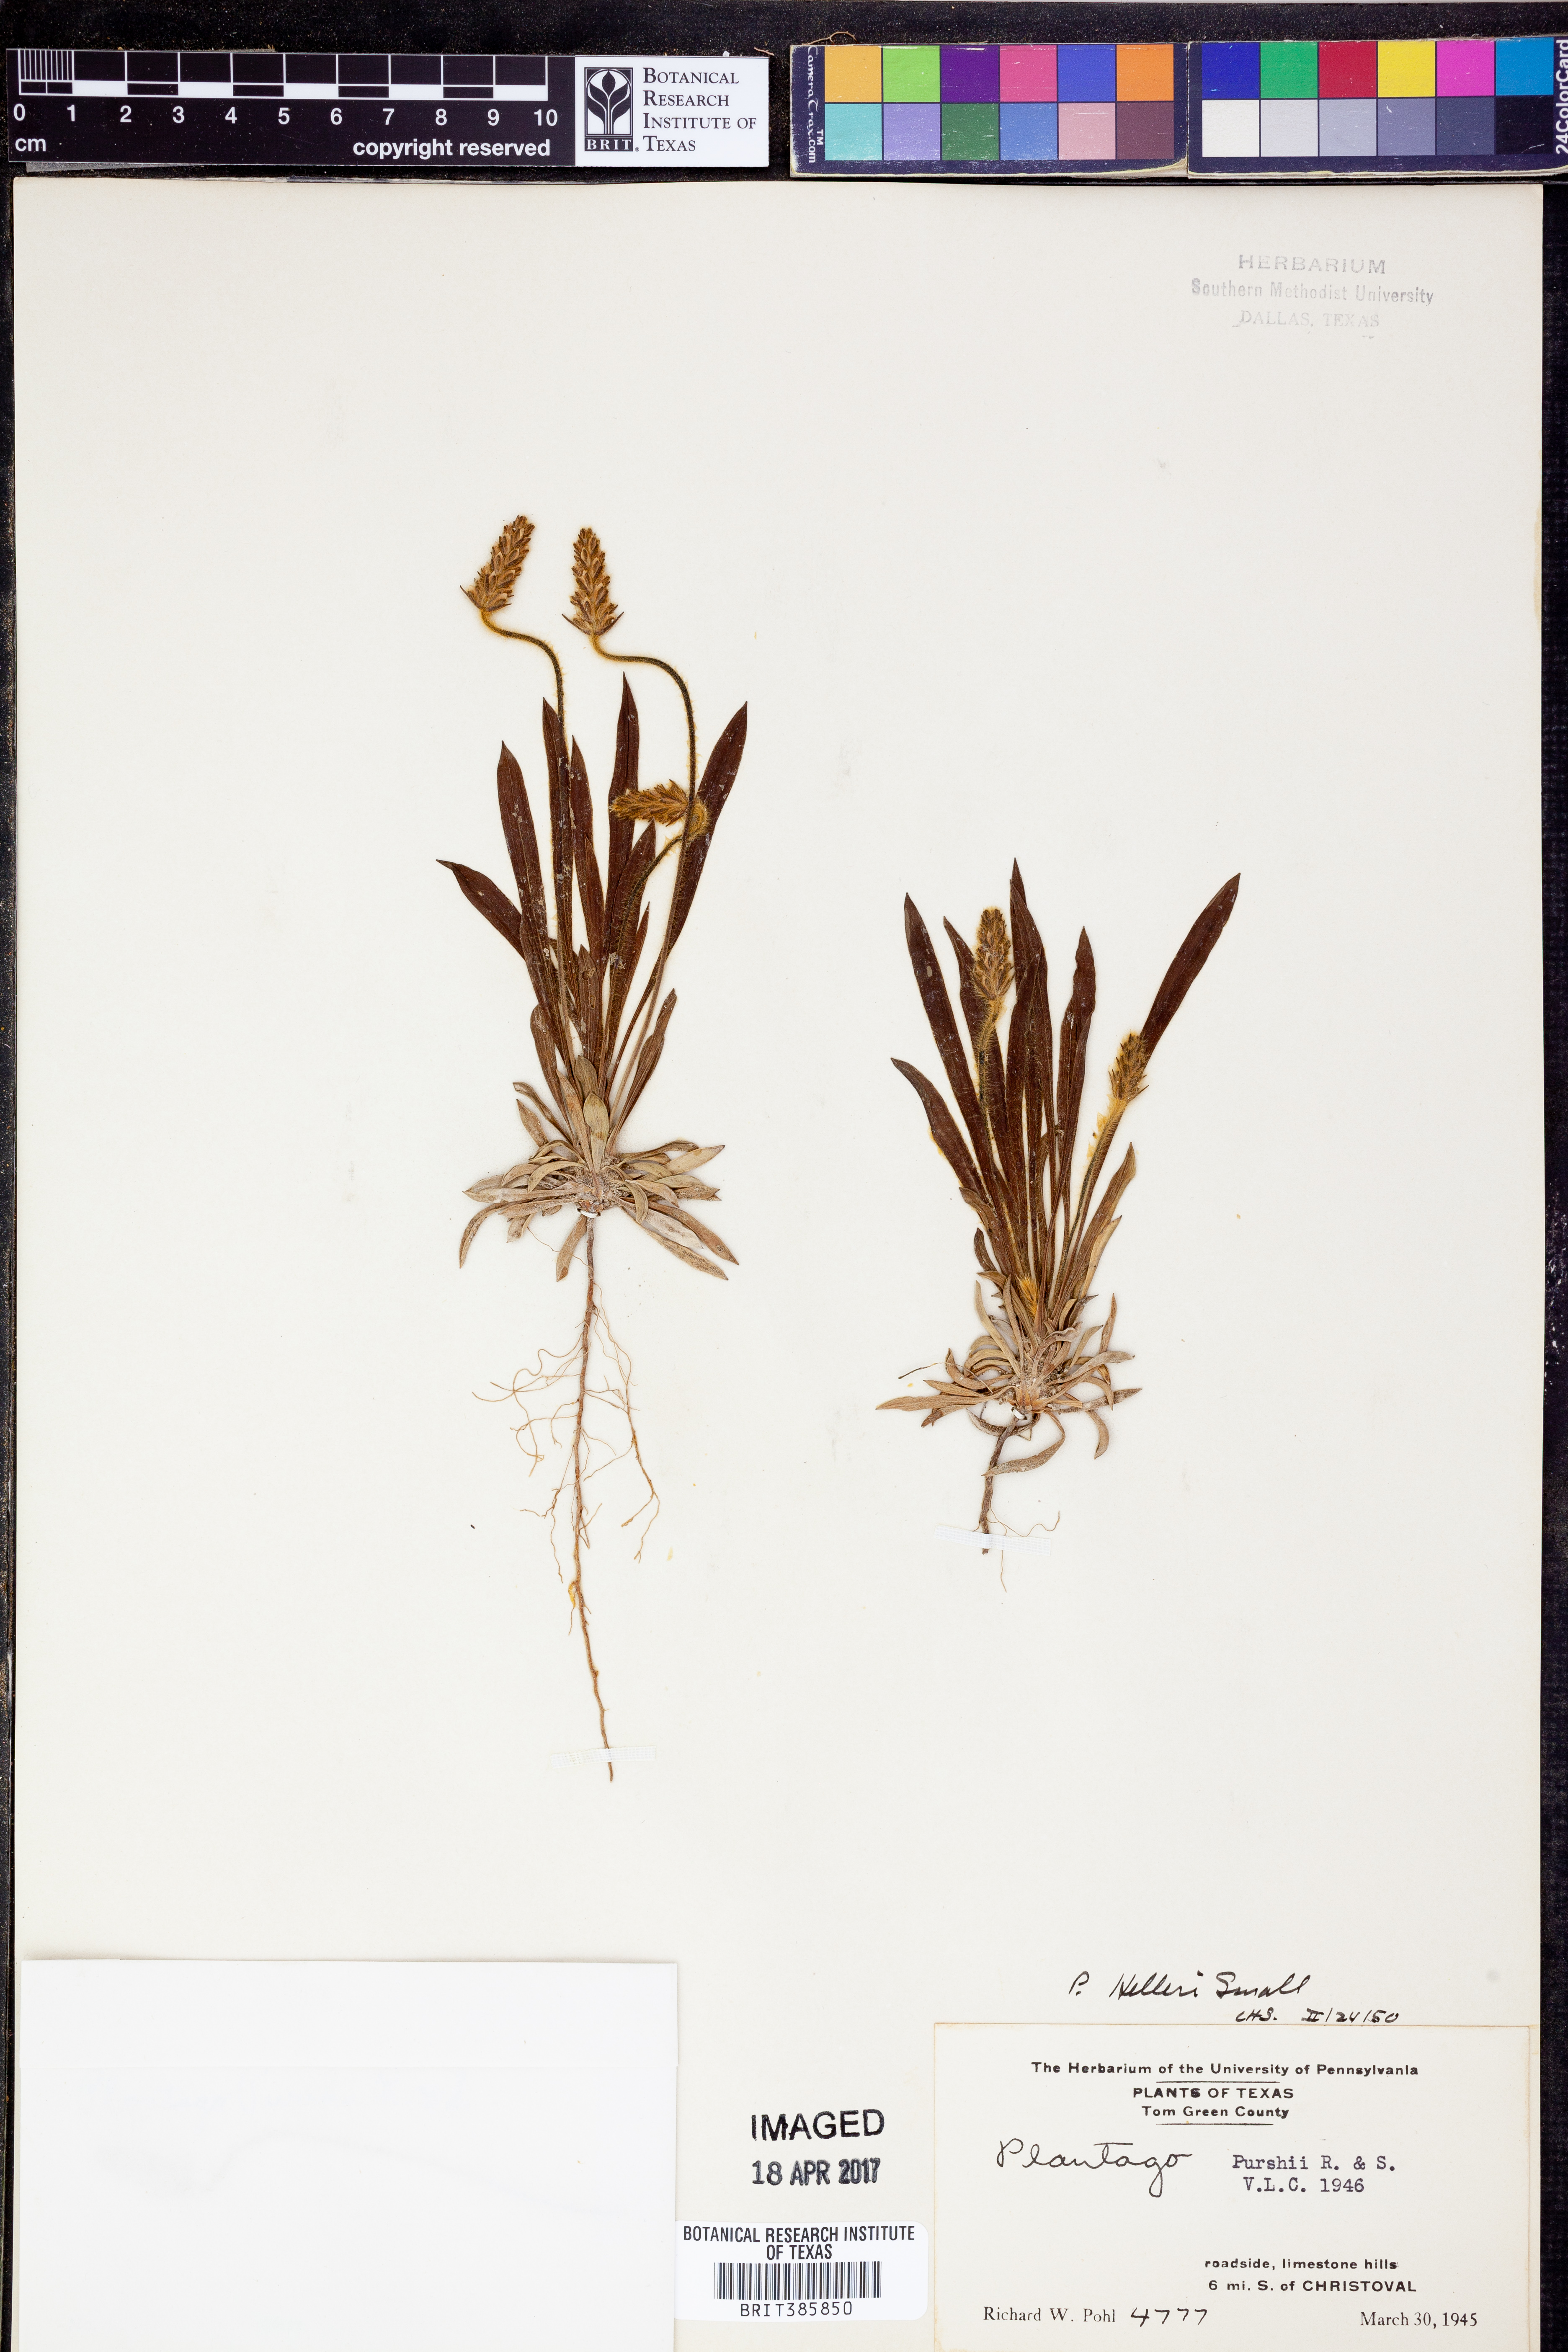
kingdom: Plantae
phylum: Tracheophyta
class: Magnoliopsida
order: Lamiales
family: Plantaginaceae
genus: Plantago
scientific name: Plantago helleri
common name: Heller's plantain
